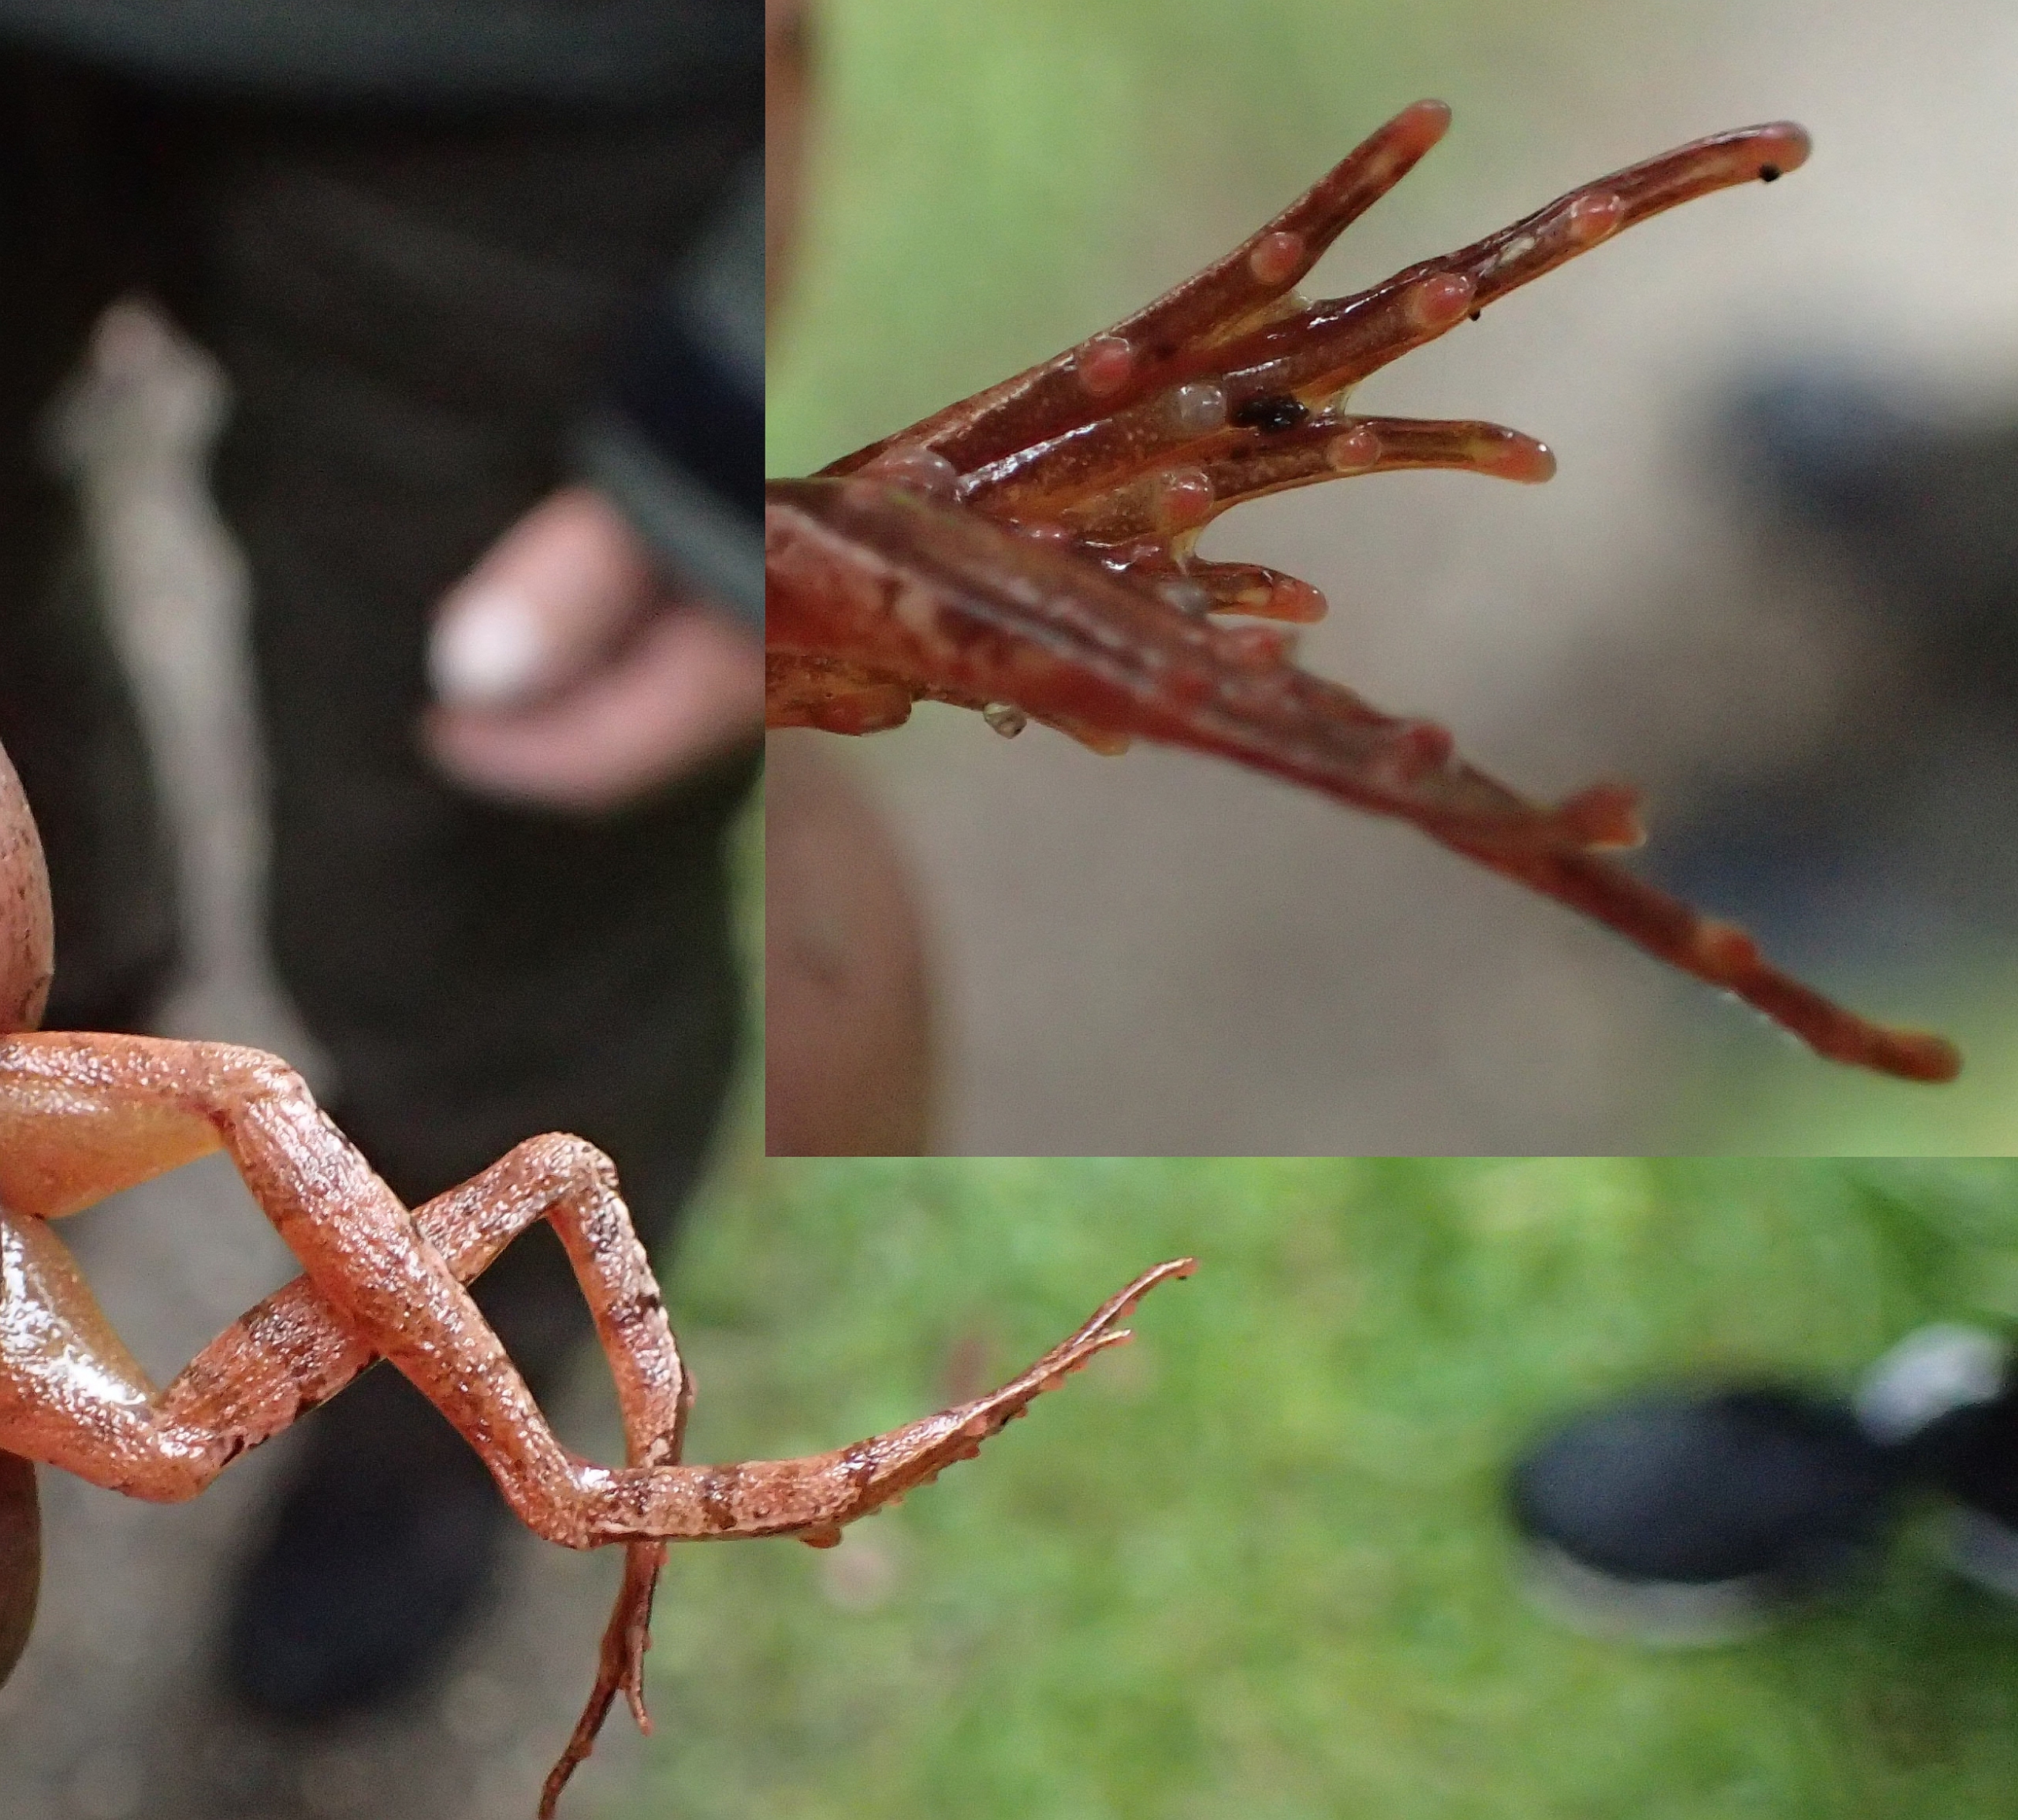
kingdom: Animalia
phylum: Chordata
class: Amphibia
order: Anura
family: Ranidae
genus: Rana
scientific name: Rana dalmatina
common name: Springfrø
